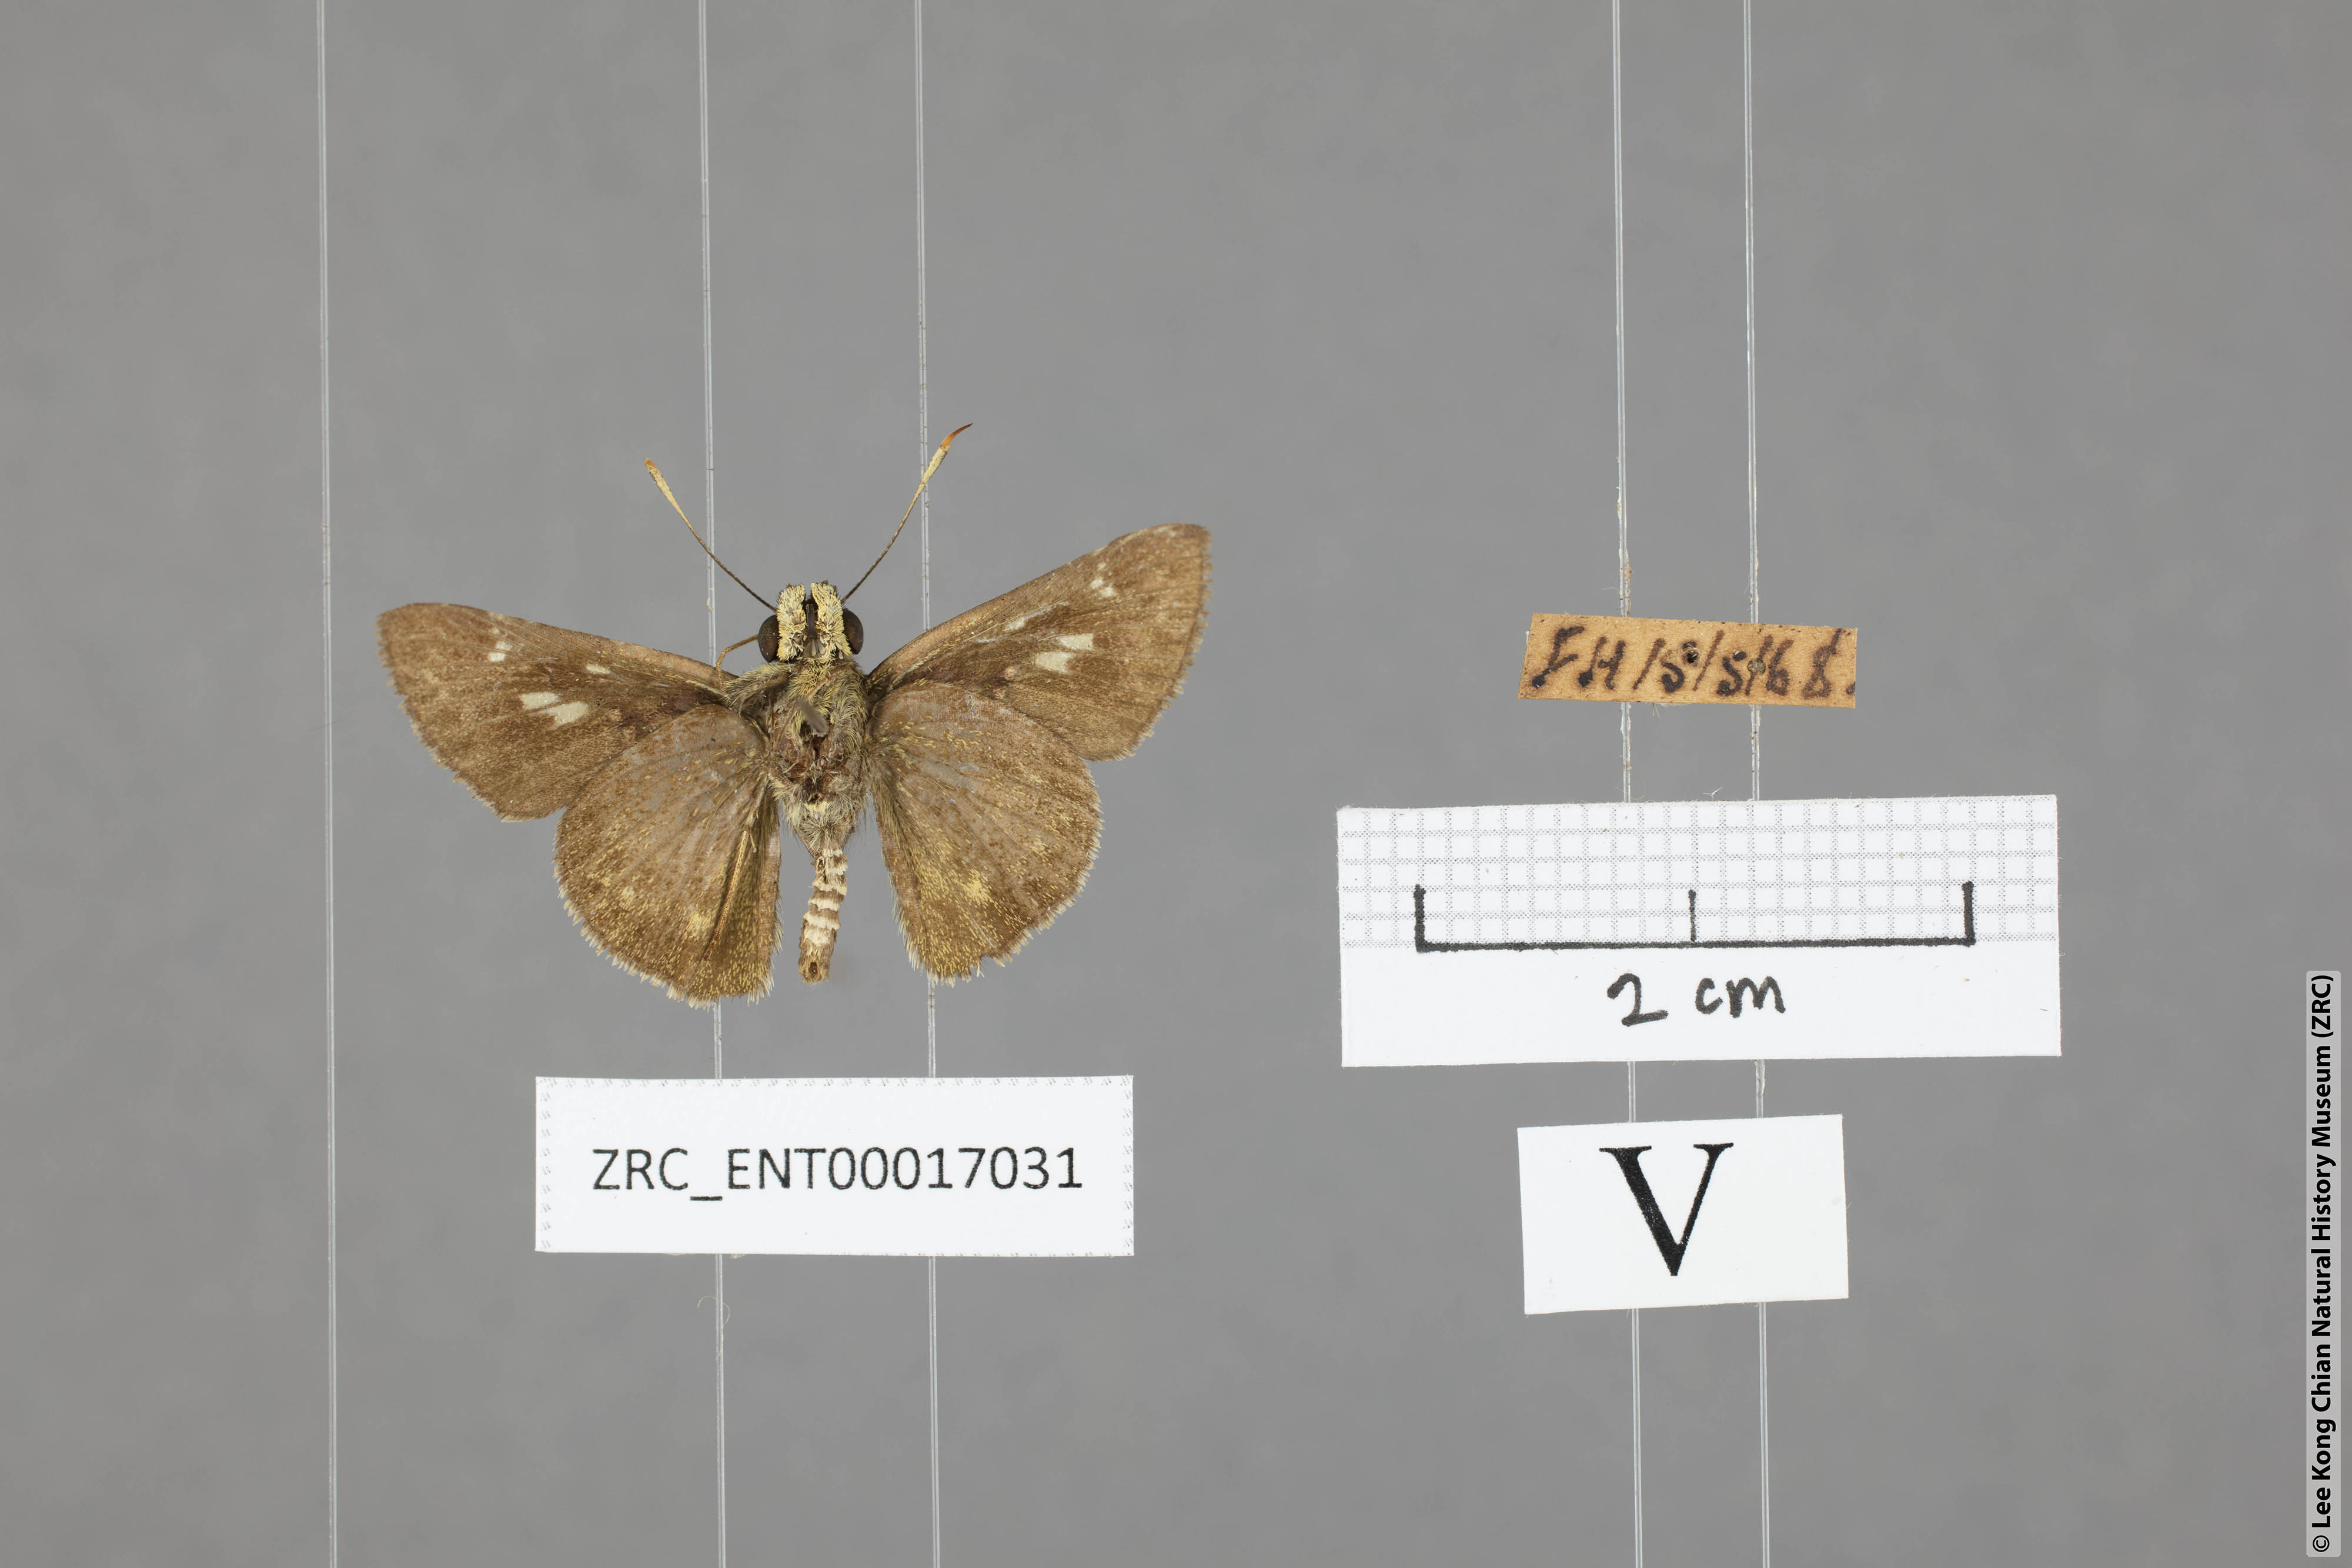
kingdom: Animalia
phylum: Arthropoda
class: Insecta
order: Lepidoptera
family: Hesperiidae
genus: Halpe
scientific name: Halpe pelethronix
